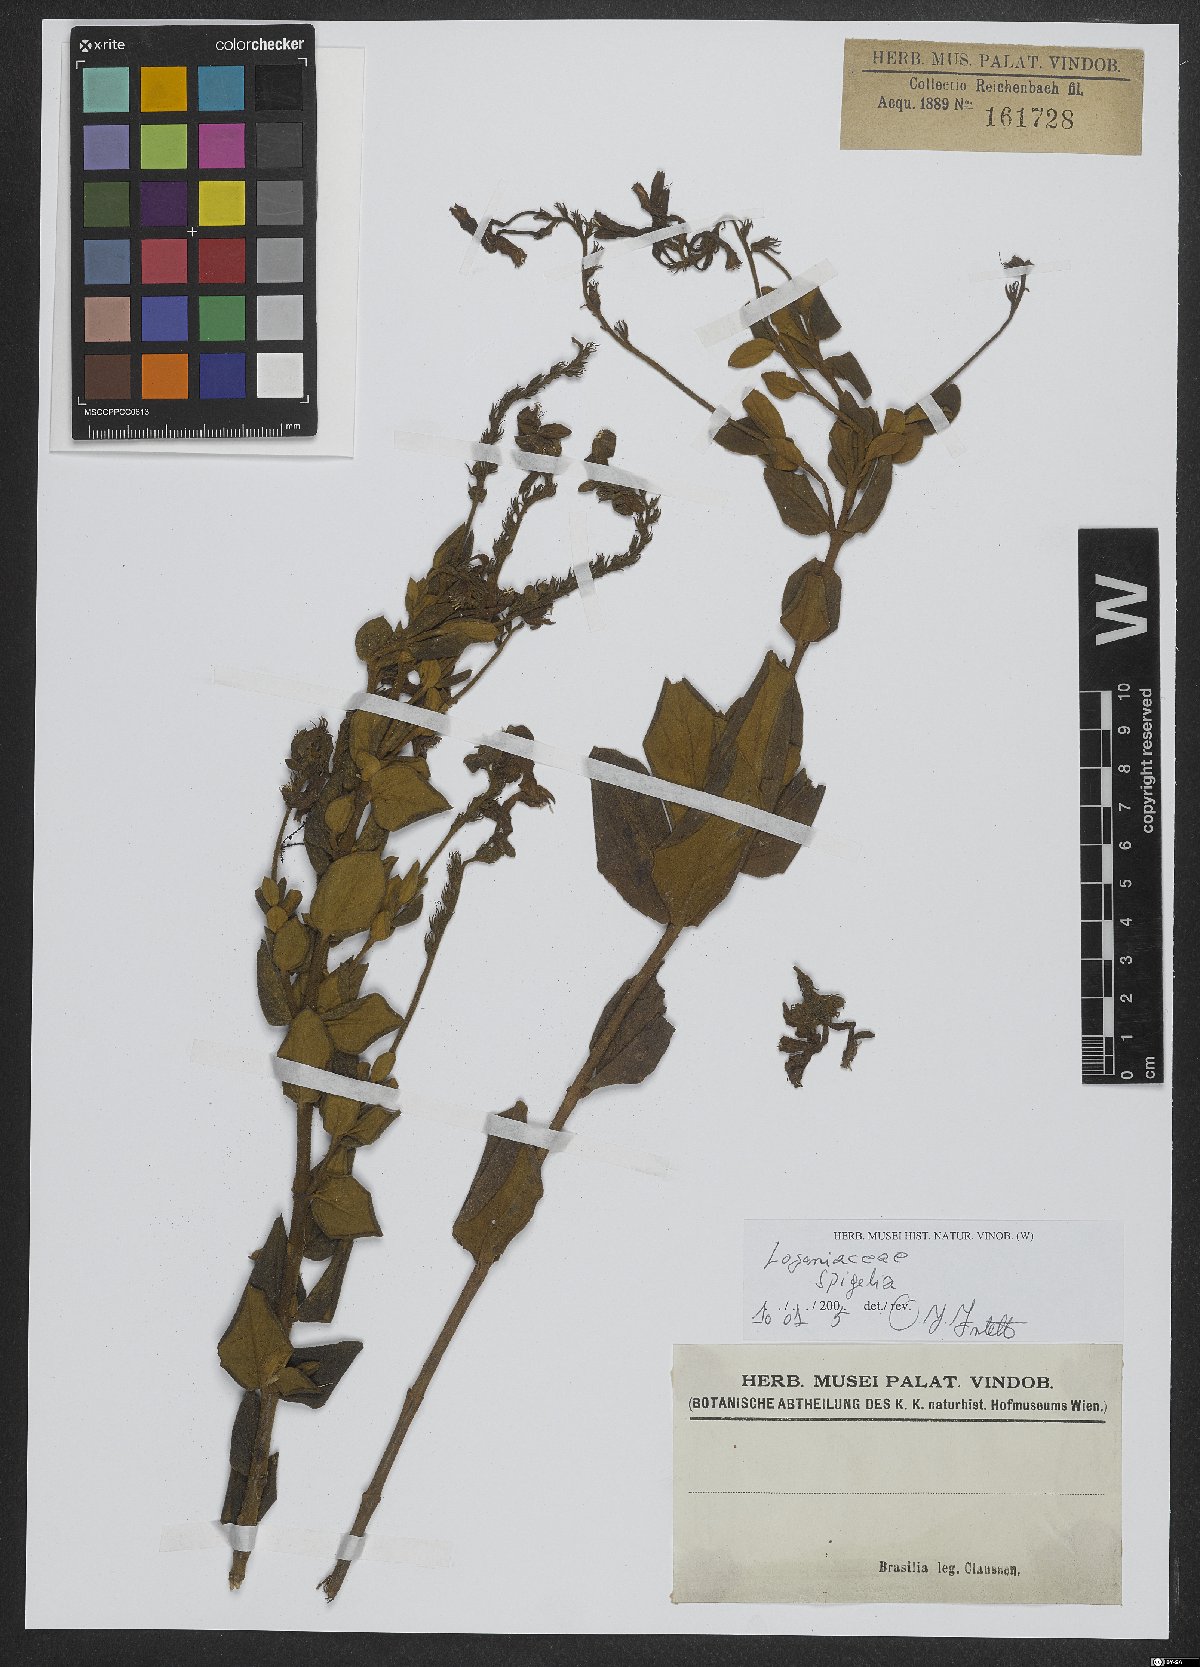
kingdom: Plantae
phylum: Tracheophyta
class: Magnoliopsida
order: Gentianales
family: Loganiaceae
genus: Spigelia
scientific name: Spigelia
